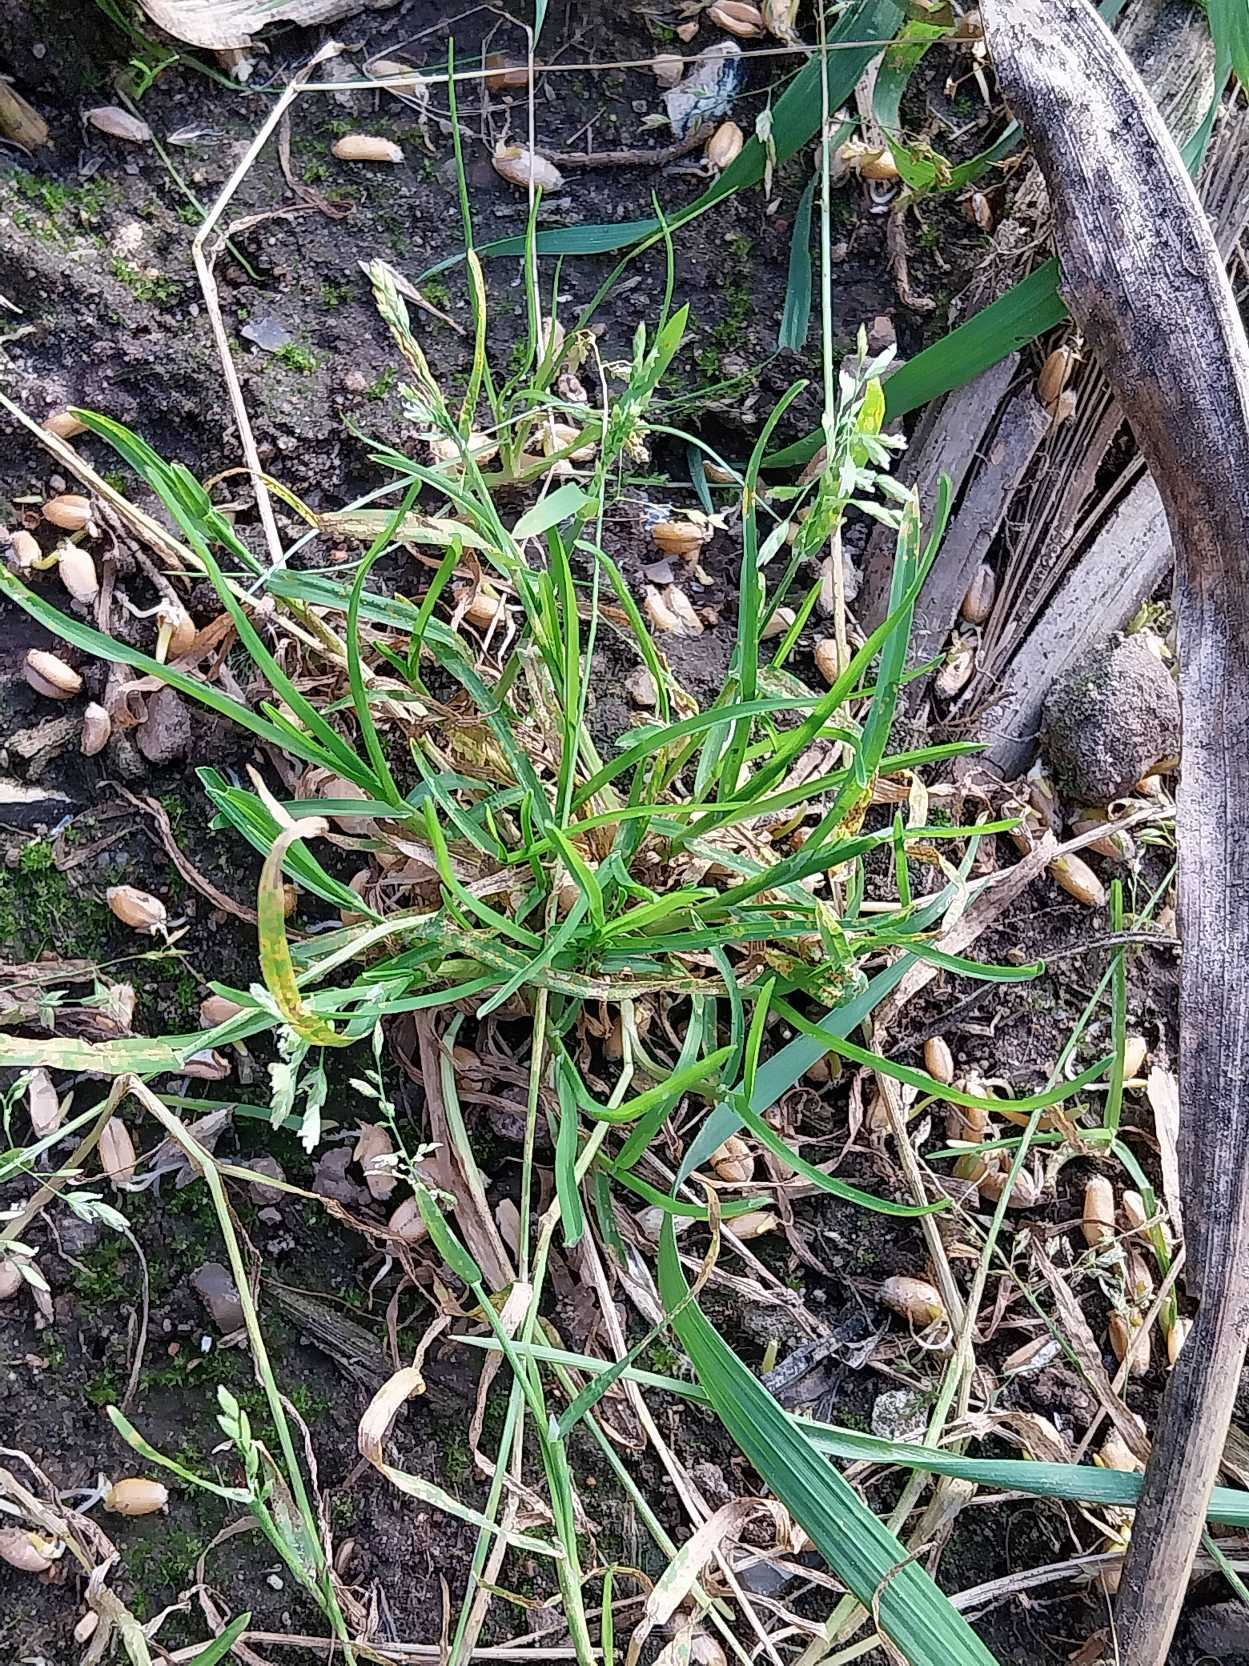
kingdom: Plantae
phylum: Tracheophyta
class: Liliopsida
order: Poales
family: Poaceae
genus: Poa
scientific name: Poa annua
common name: Enårig rapgræs
